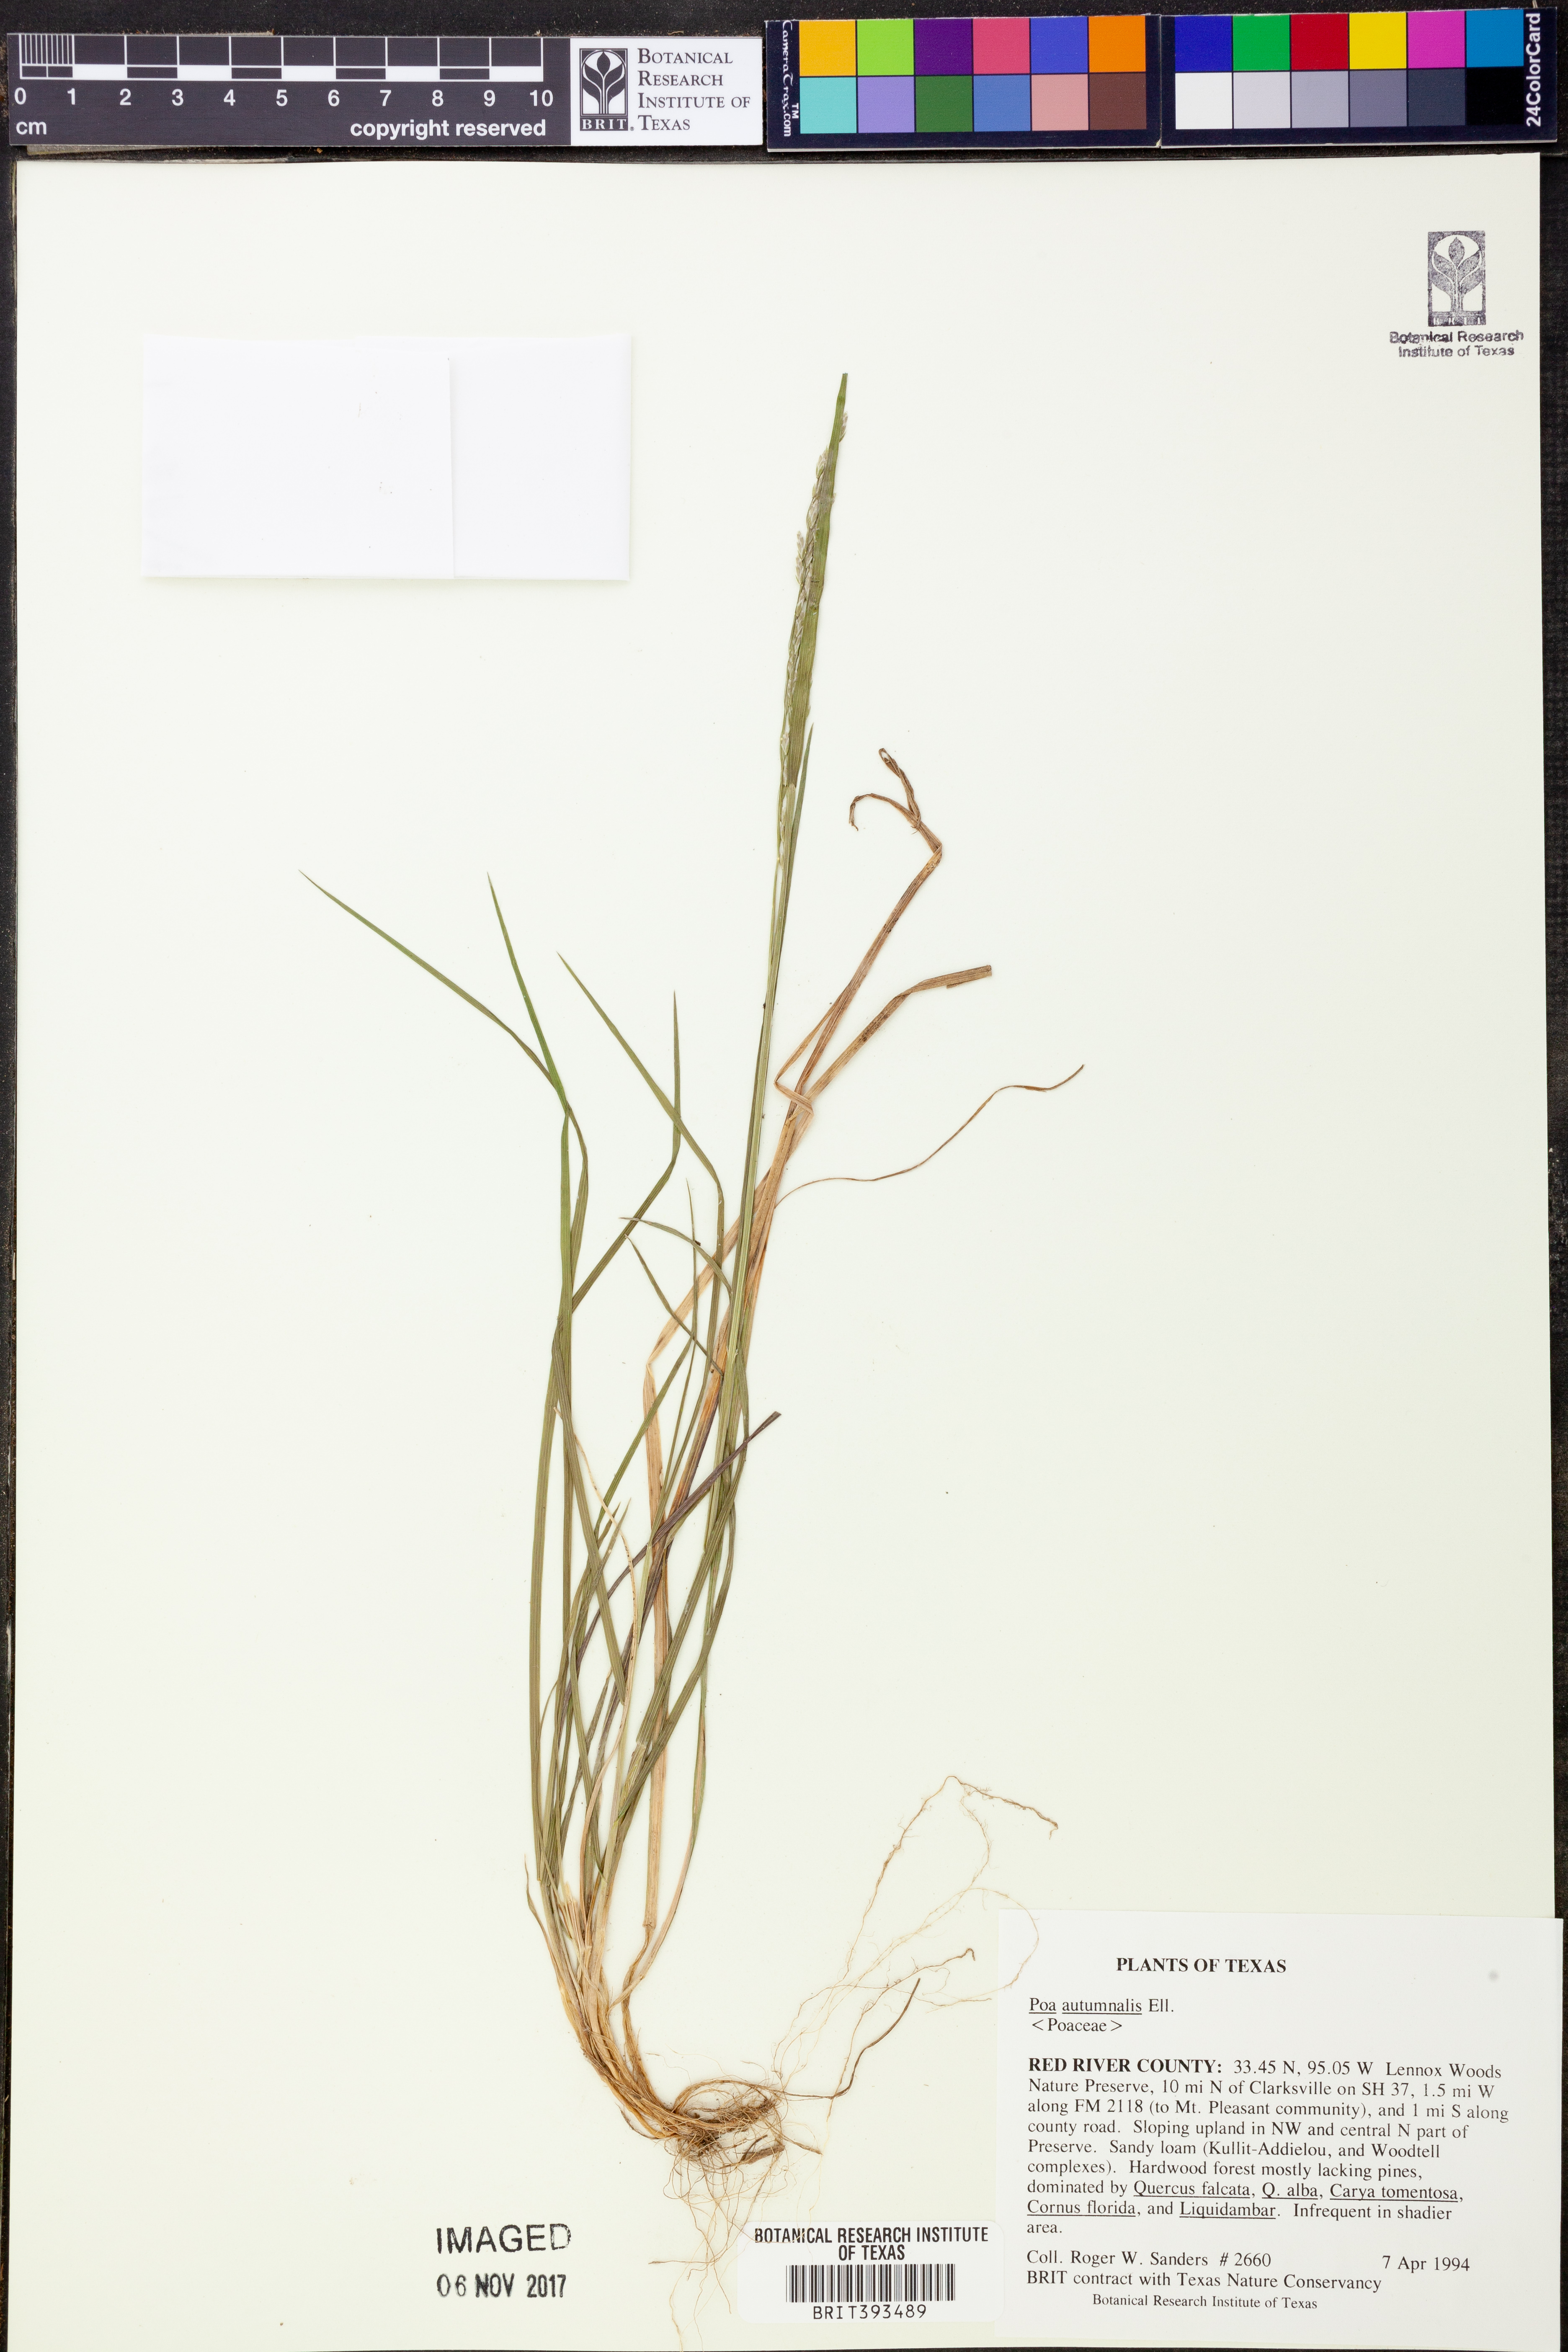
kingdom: Plantae
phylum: Tracheophyta
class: Liliopsida
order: Poales
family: Poaceae
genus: Poa
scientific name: Poa autumnalis
